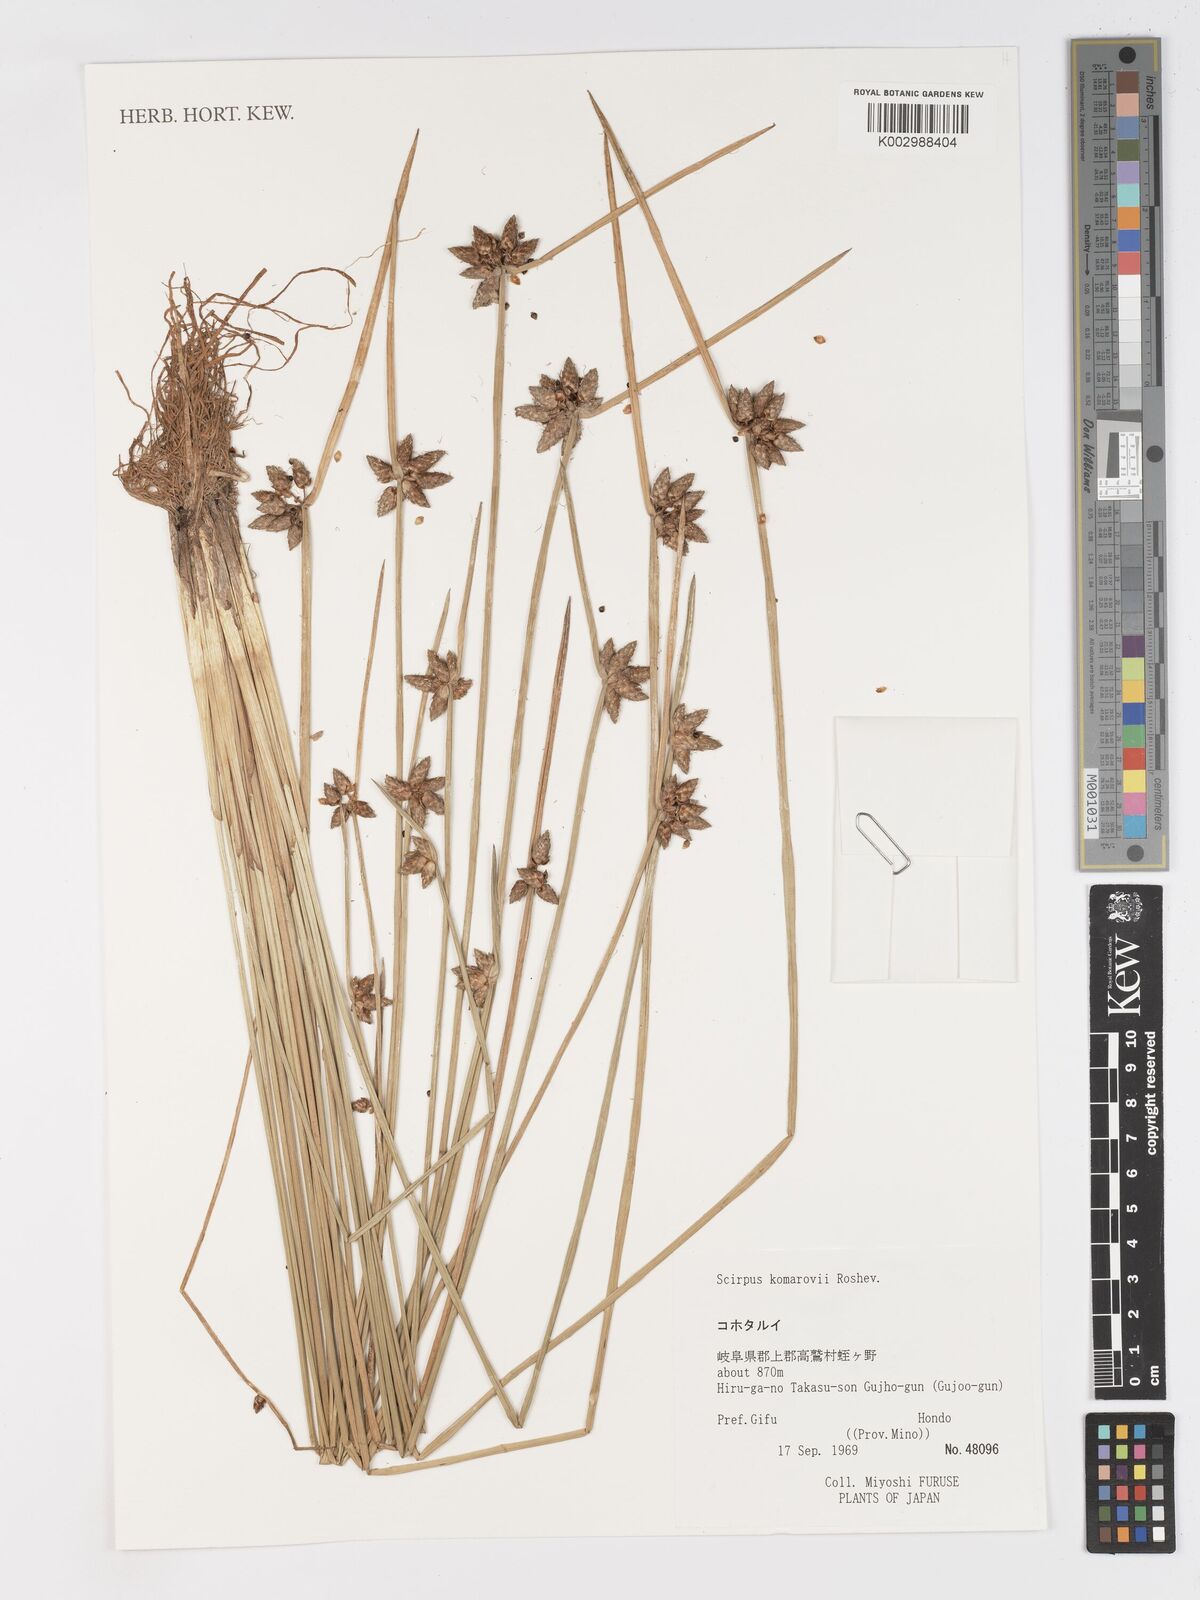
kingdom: Plantae
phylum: Tracheophyta
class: Liliopsida
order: Poales
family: Cyperaceae
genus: Schoenoplectiella
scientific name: Schoenoplectiella komarovii
